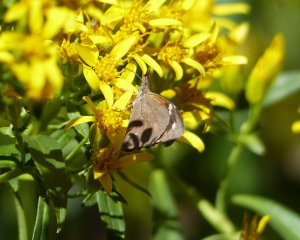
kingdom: Animalia
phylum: Arthropoda
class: Insecta
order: Lepidoptera
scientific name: Lepidoptera
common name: Butterflies
